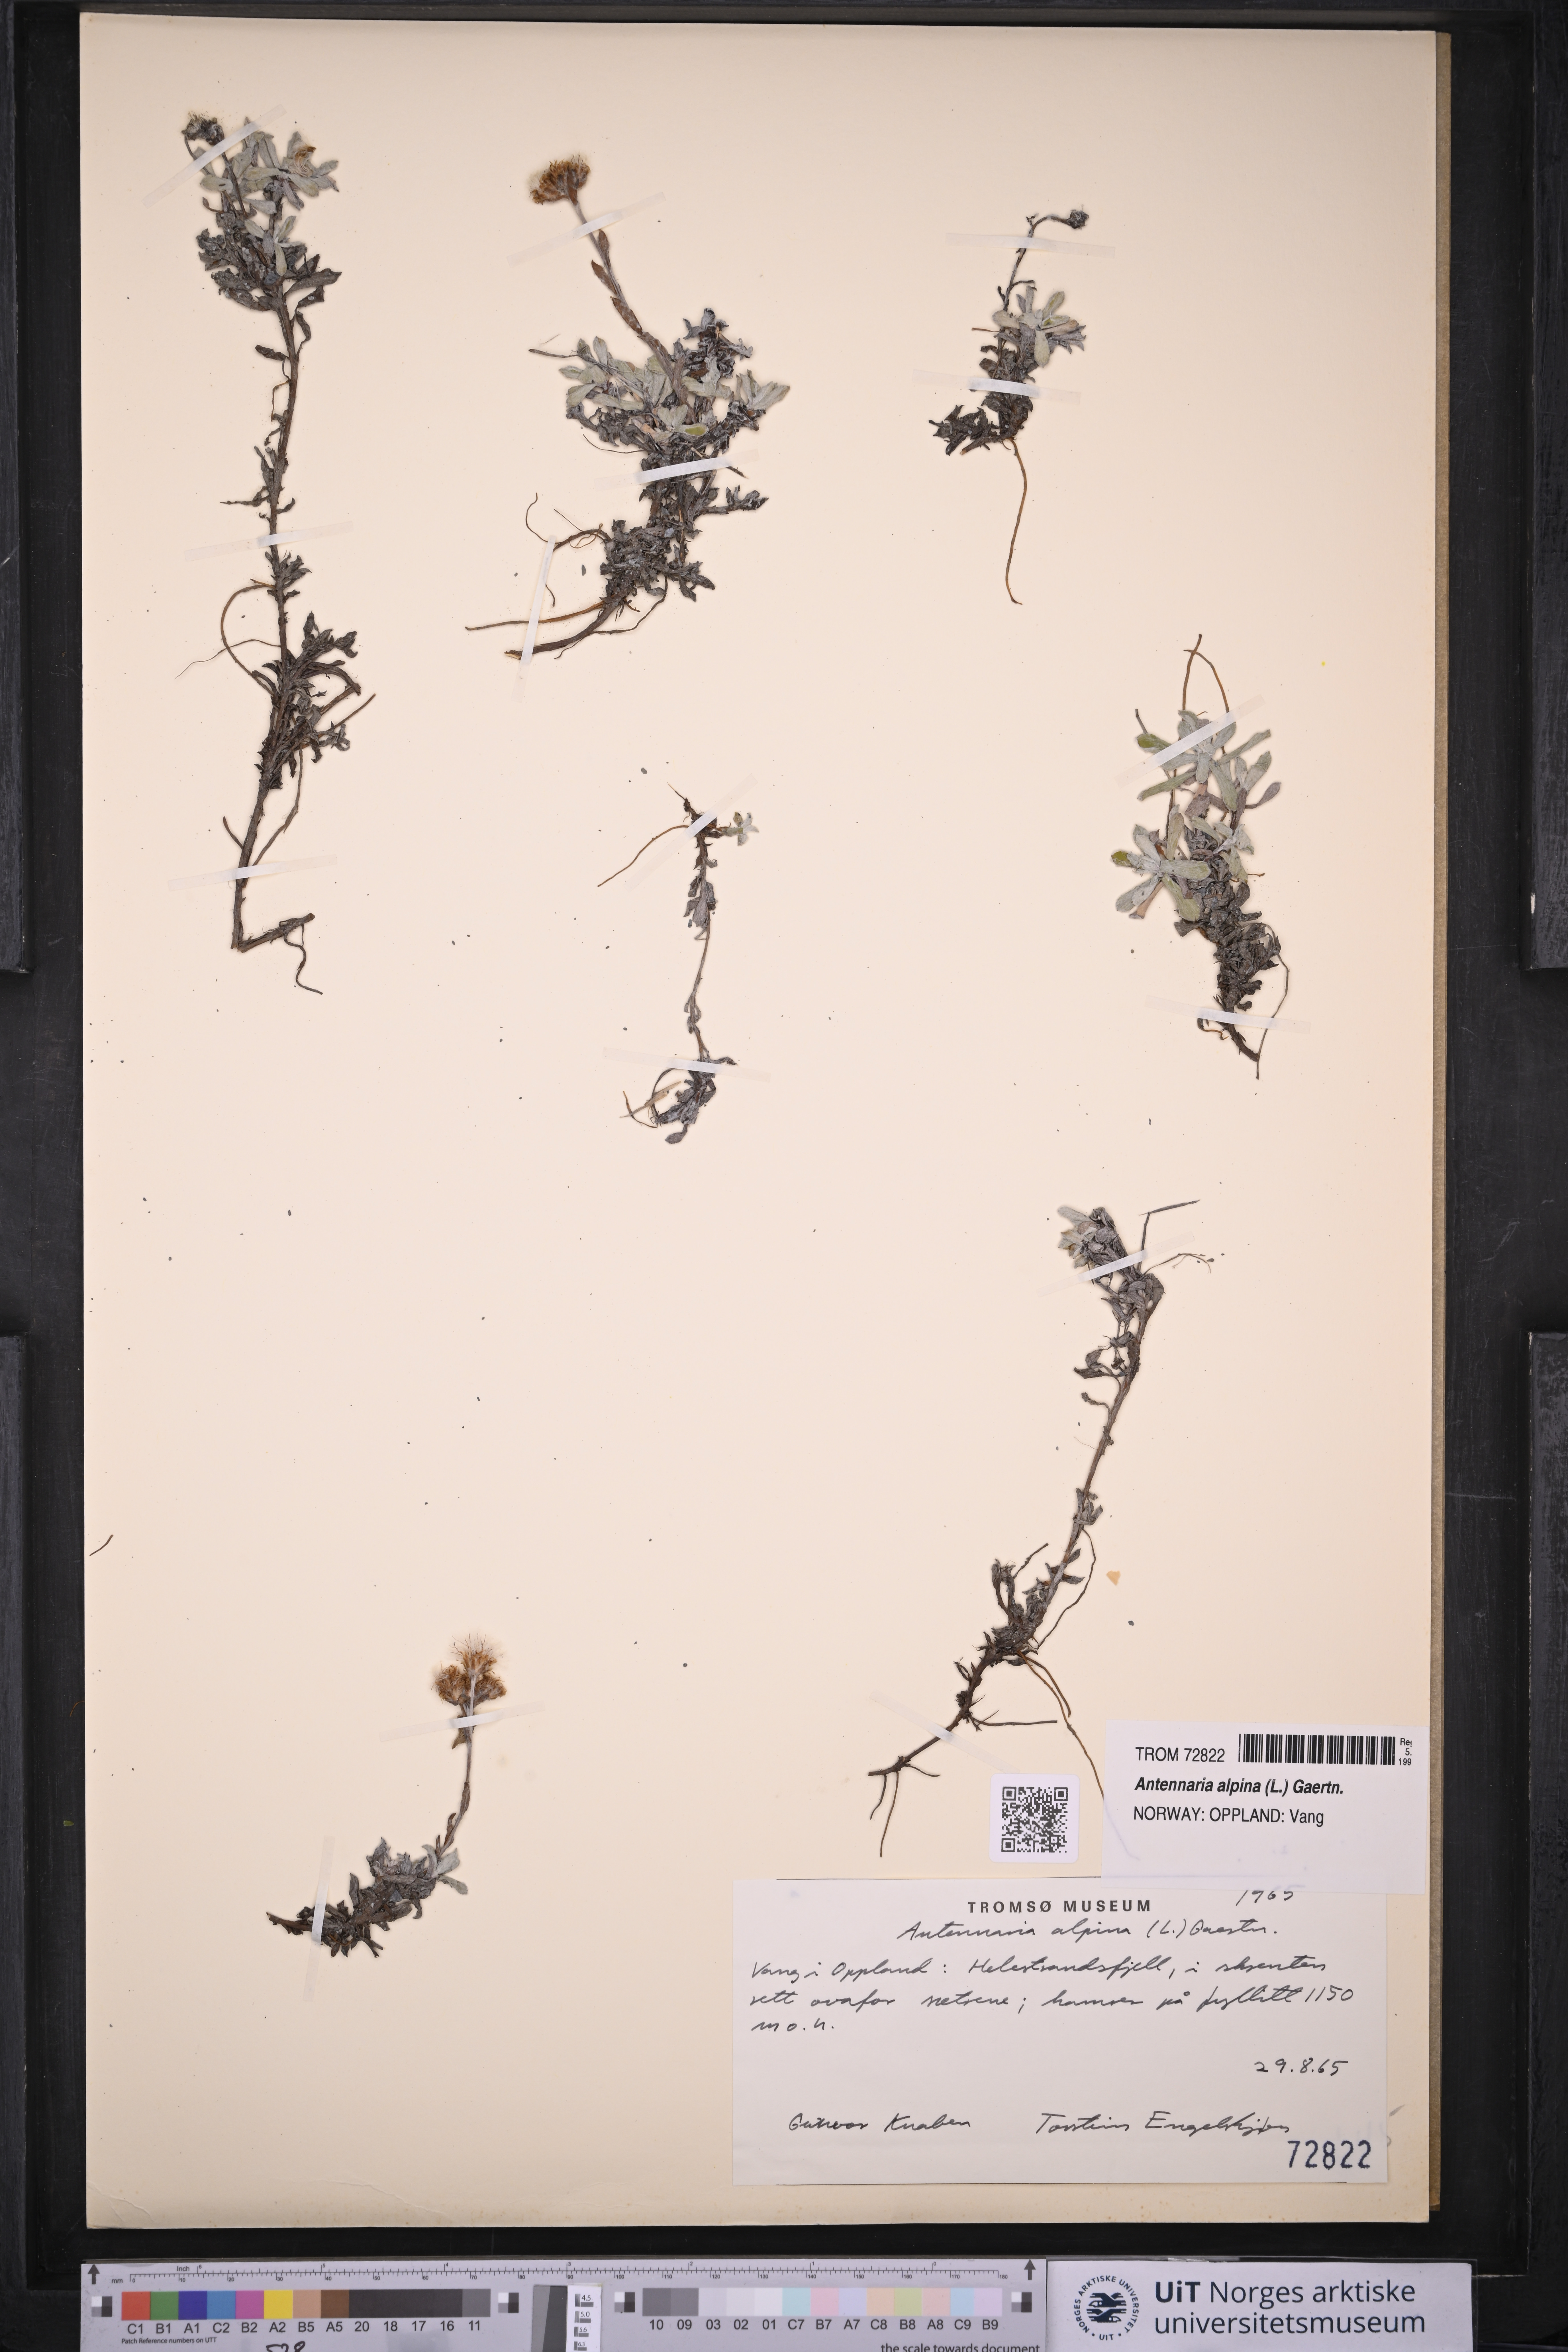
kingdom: Plantae
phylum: Tracheophyta
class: Magnoliopsida
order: Asterales
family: Asteraceae
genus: Antennaria
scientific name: Antennaria alpina
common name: Alpine pussytoes
